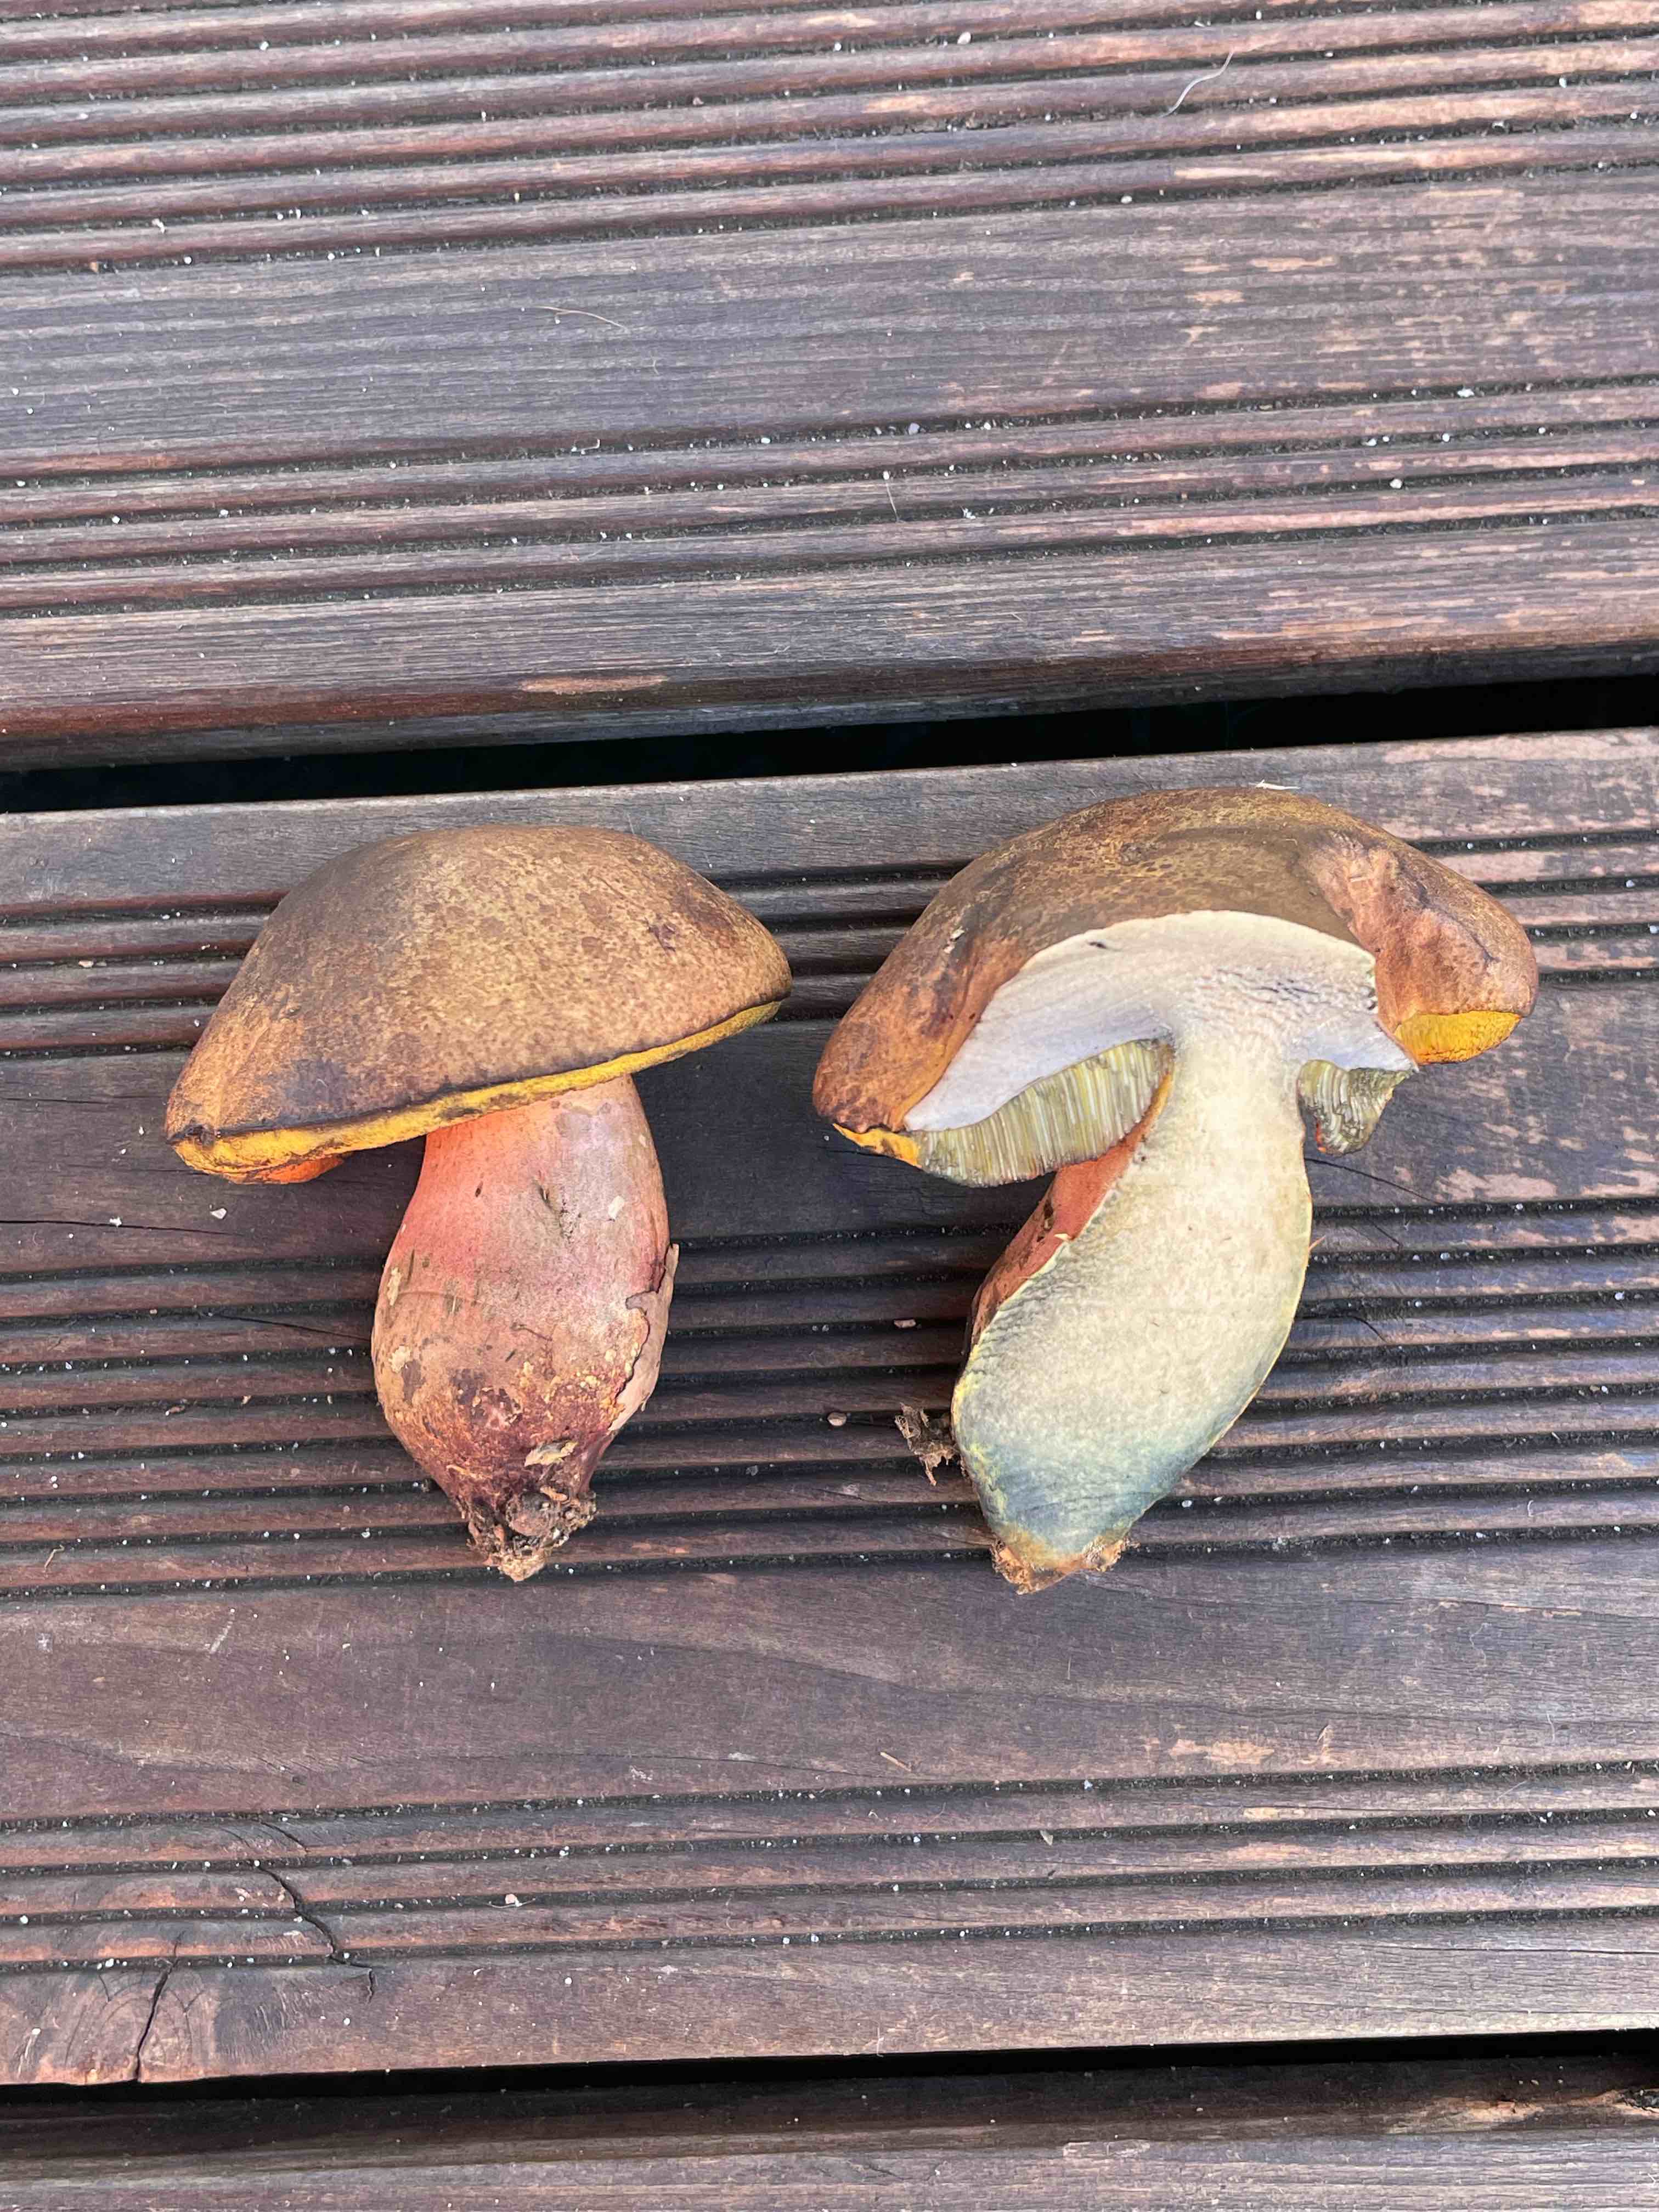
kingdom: Fungi
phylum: Basidiomycota
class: Agaricomycetes
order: Boletales
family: Boletaceae
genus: Neoboletus
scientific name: Neoboletus xanthopus
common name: finprikket indigorørhat
